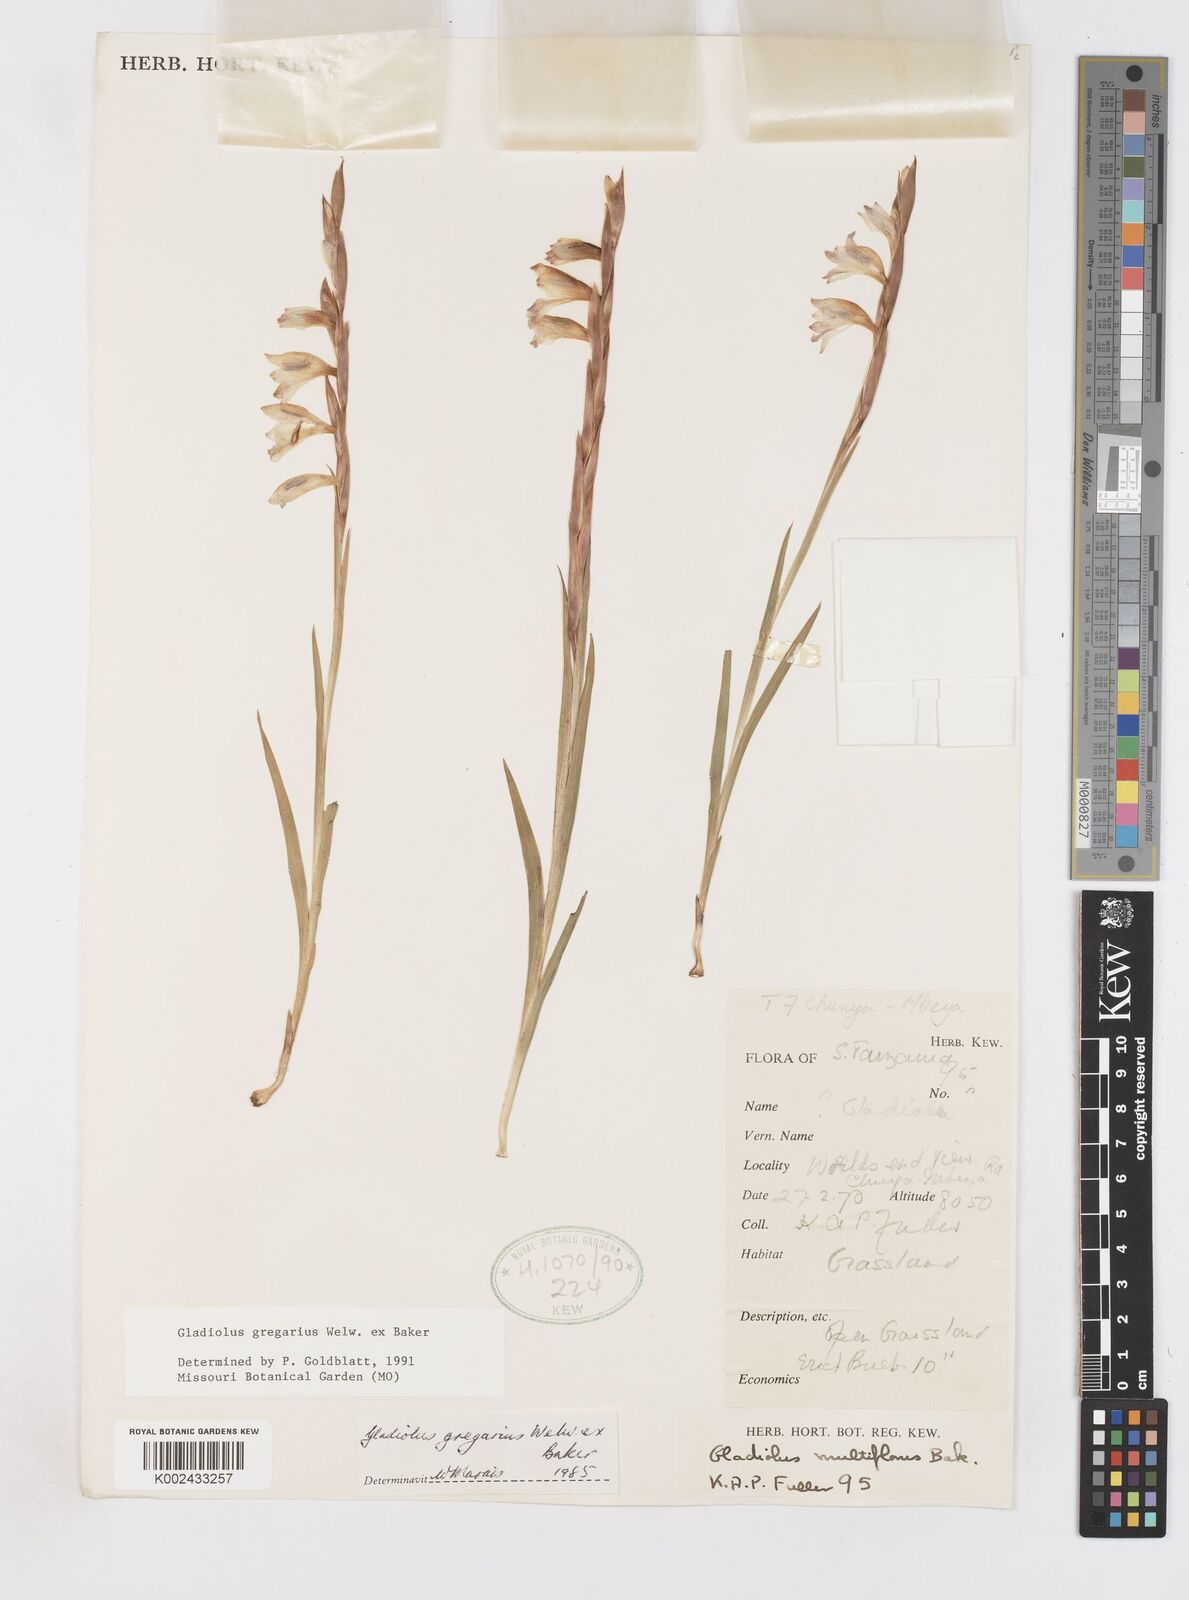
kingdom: Plantae
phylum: Tracheophyta
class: Liliopsida
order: Asparagales
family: Iridaceae
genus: Gladiolus
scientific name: Gladiolus gregarius
